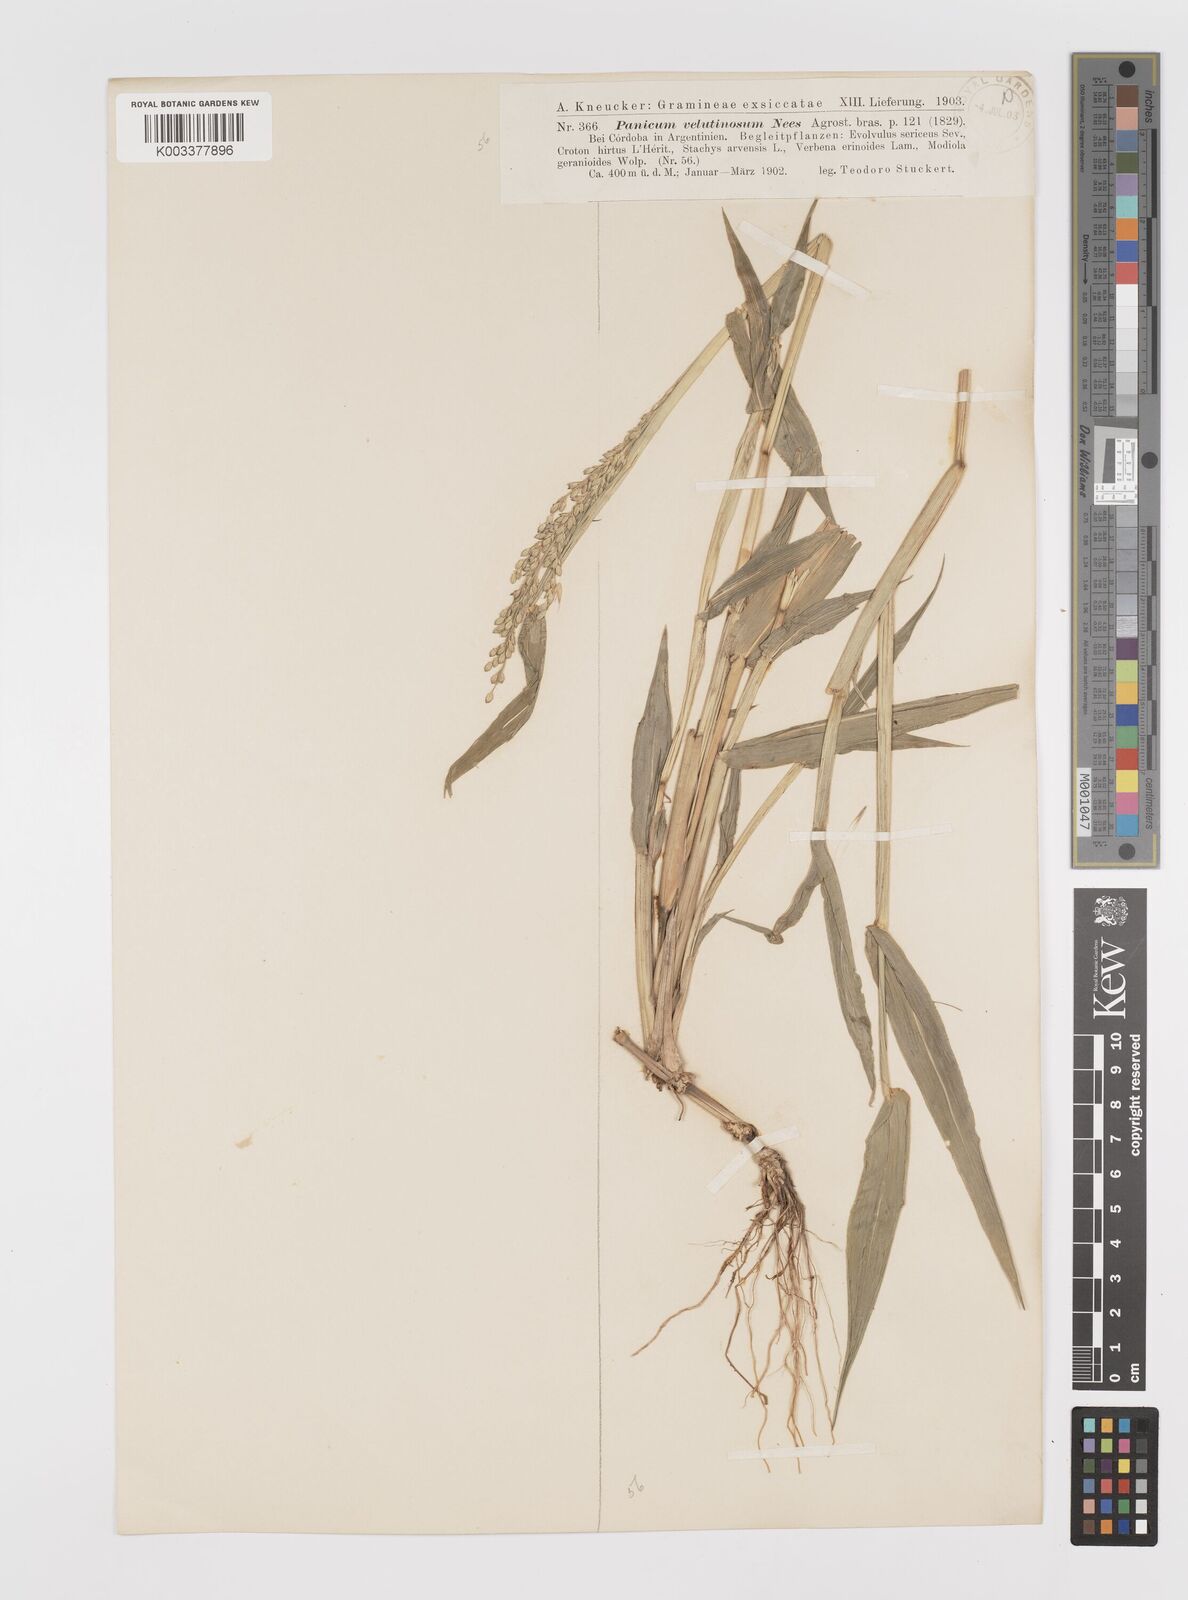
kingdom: Plantae
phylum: Tracheophyta
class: Liliopsida
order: Poales
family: Poaceae
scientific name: Poaceae
